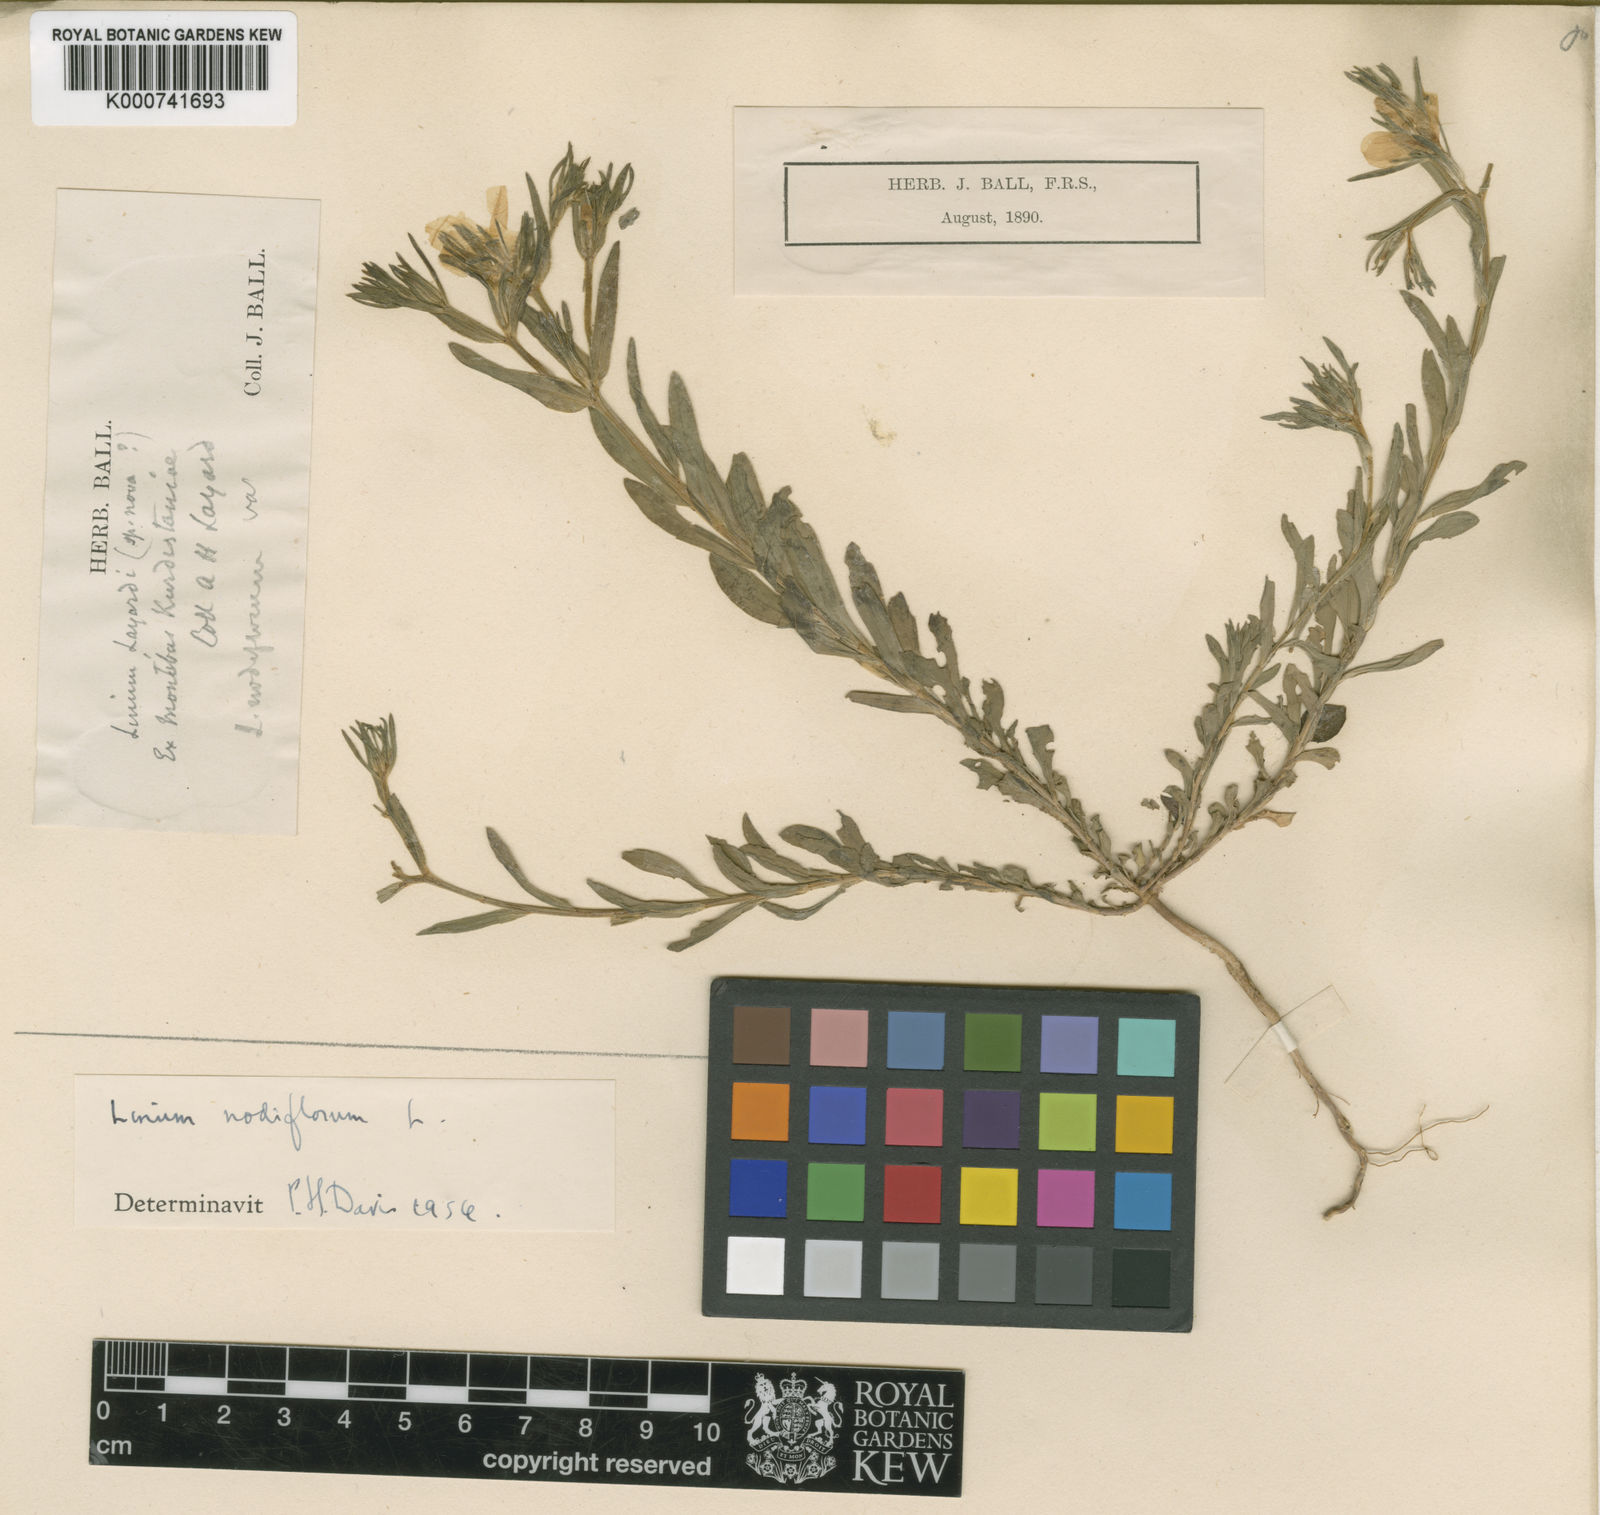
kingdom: Plantae
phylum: Tracheophyta
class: Magnoliopsida
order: Malpighiales
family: Linaceae
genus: Linum
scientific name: Linum nodiflorum
